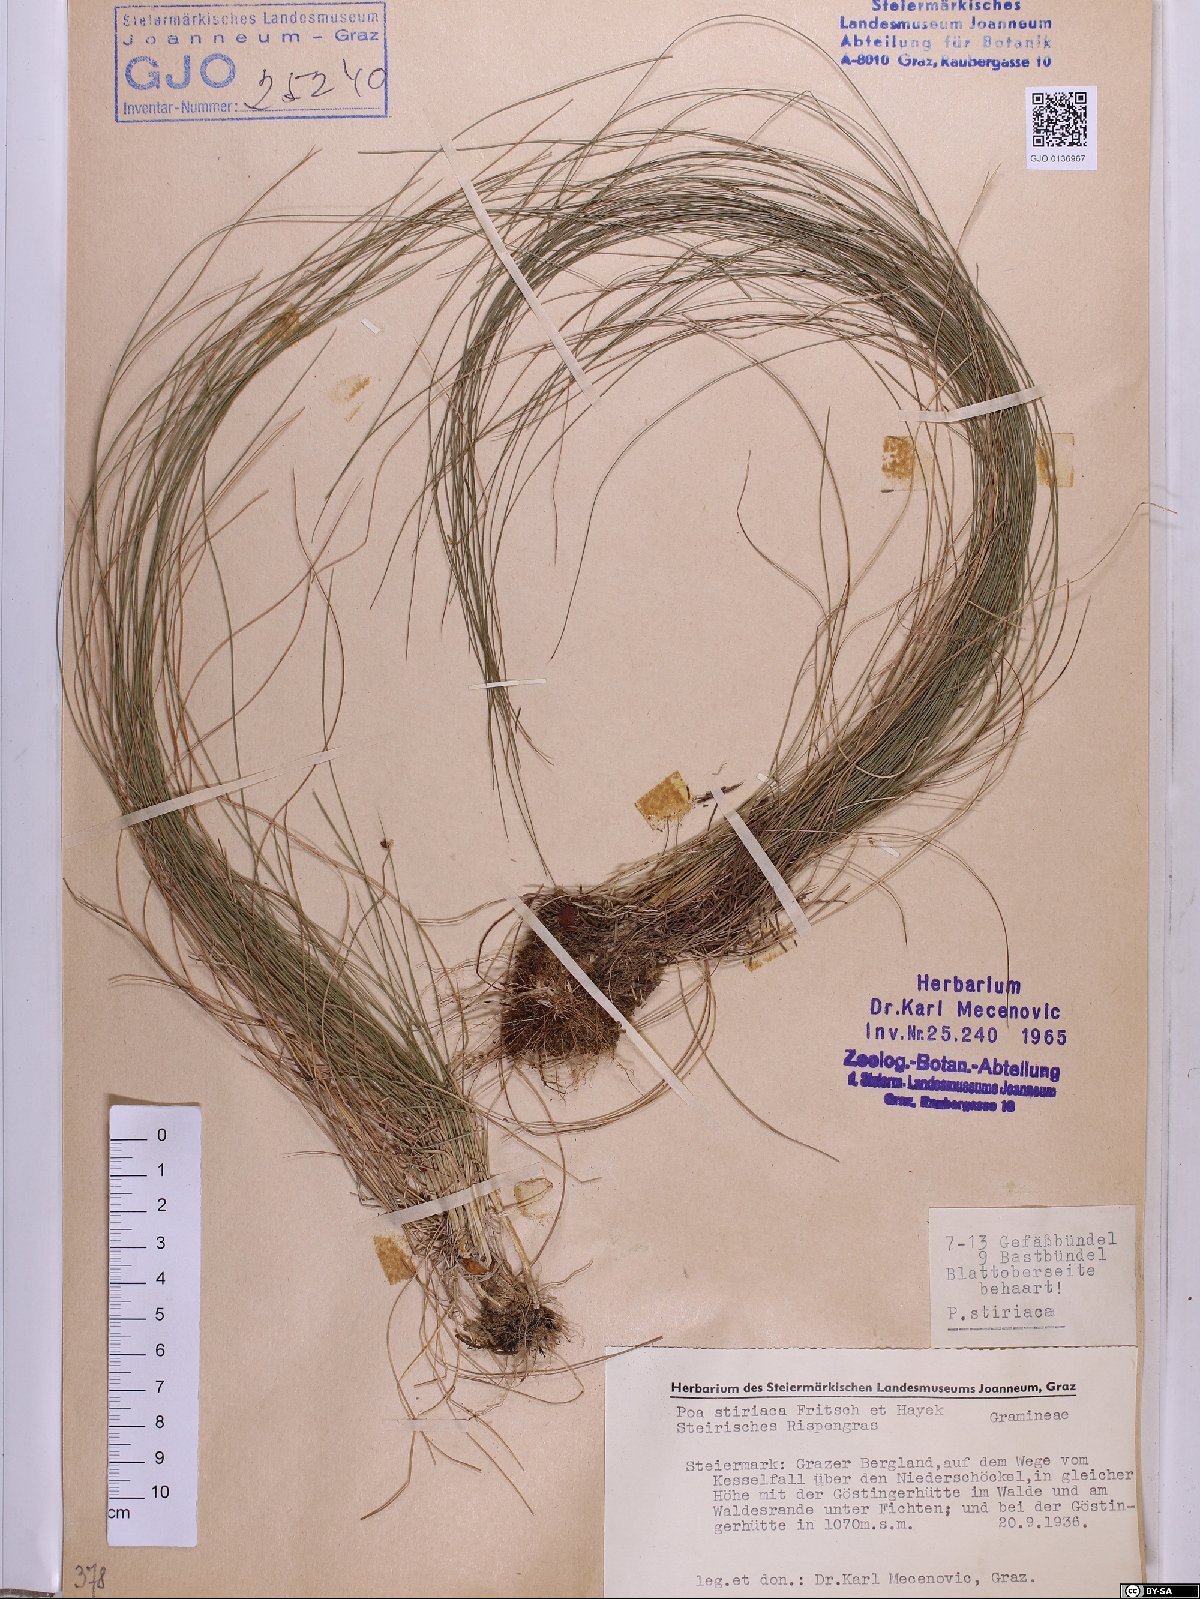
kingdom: Plantae
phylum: Tracheophyta
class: Liliopsida
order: Poales
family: Poaceae
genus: Poa
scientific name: Poa stiriaca
